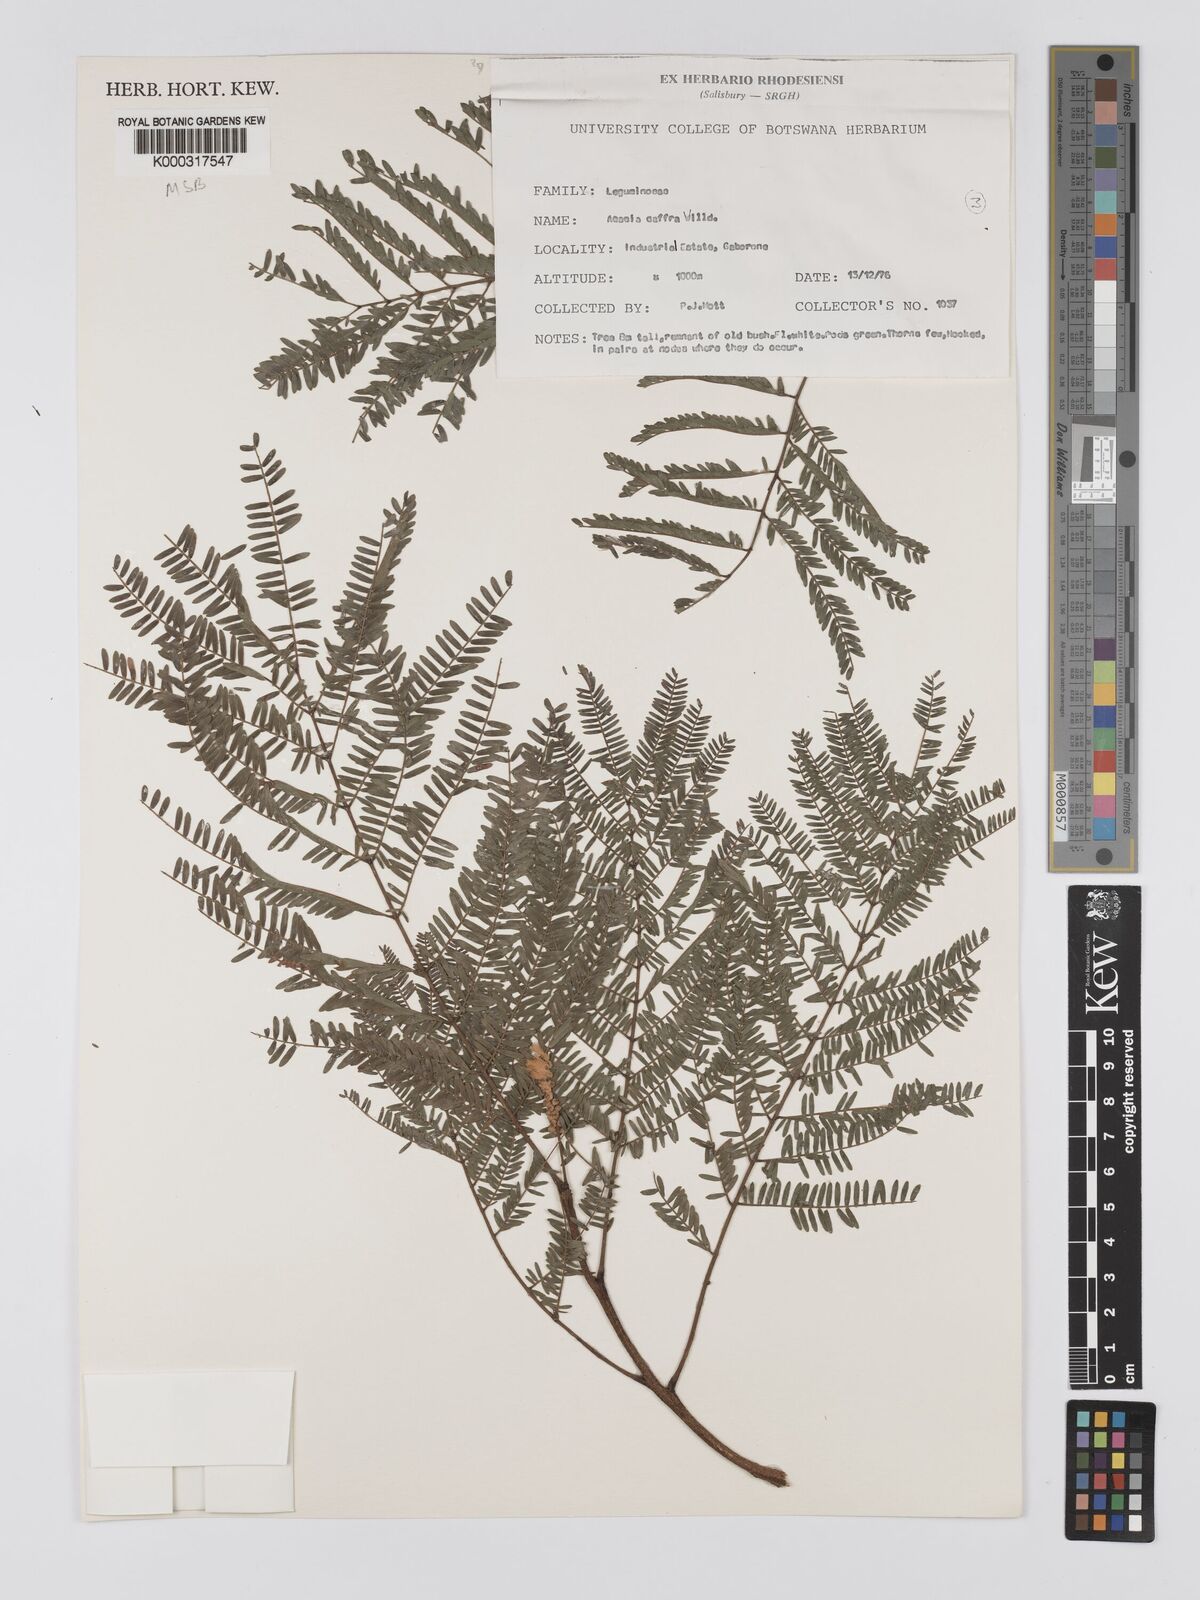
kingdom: Plantae
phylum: Tracheophyta
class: Magnoliopsida
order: Fabales
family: Fabaceae
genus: Senegalia
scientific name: Senegalia caffra
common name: Cat thorn
